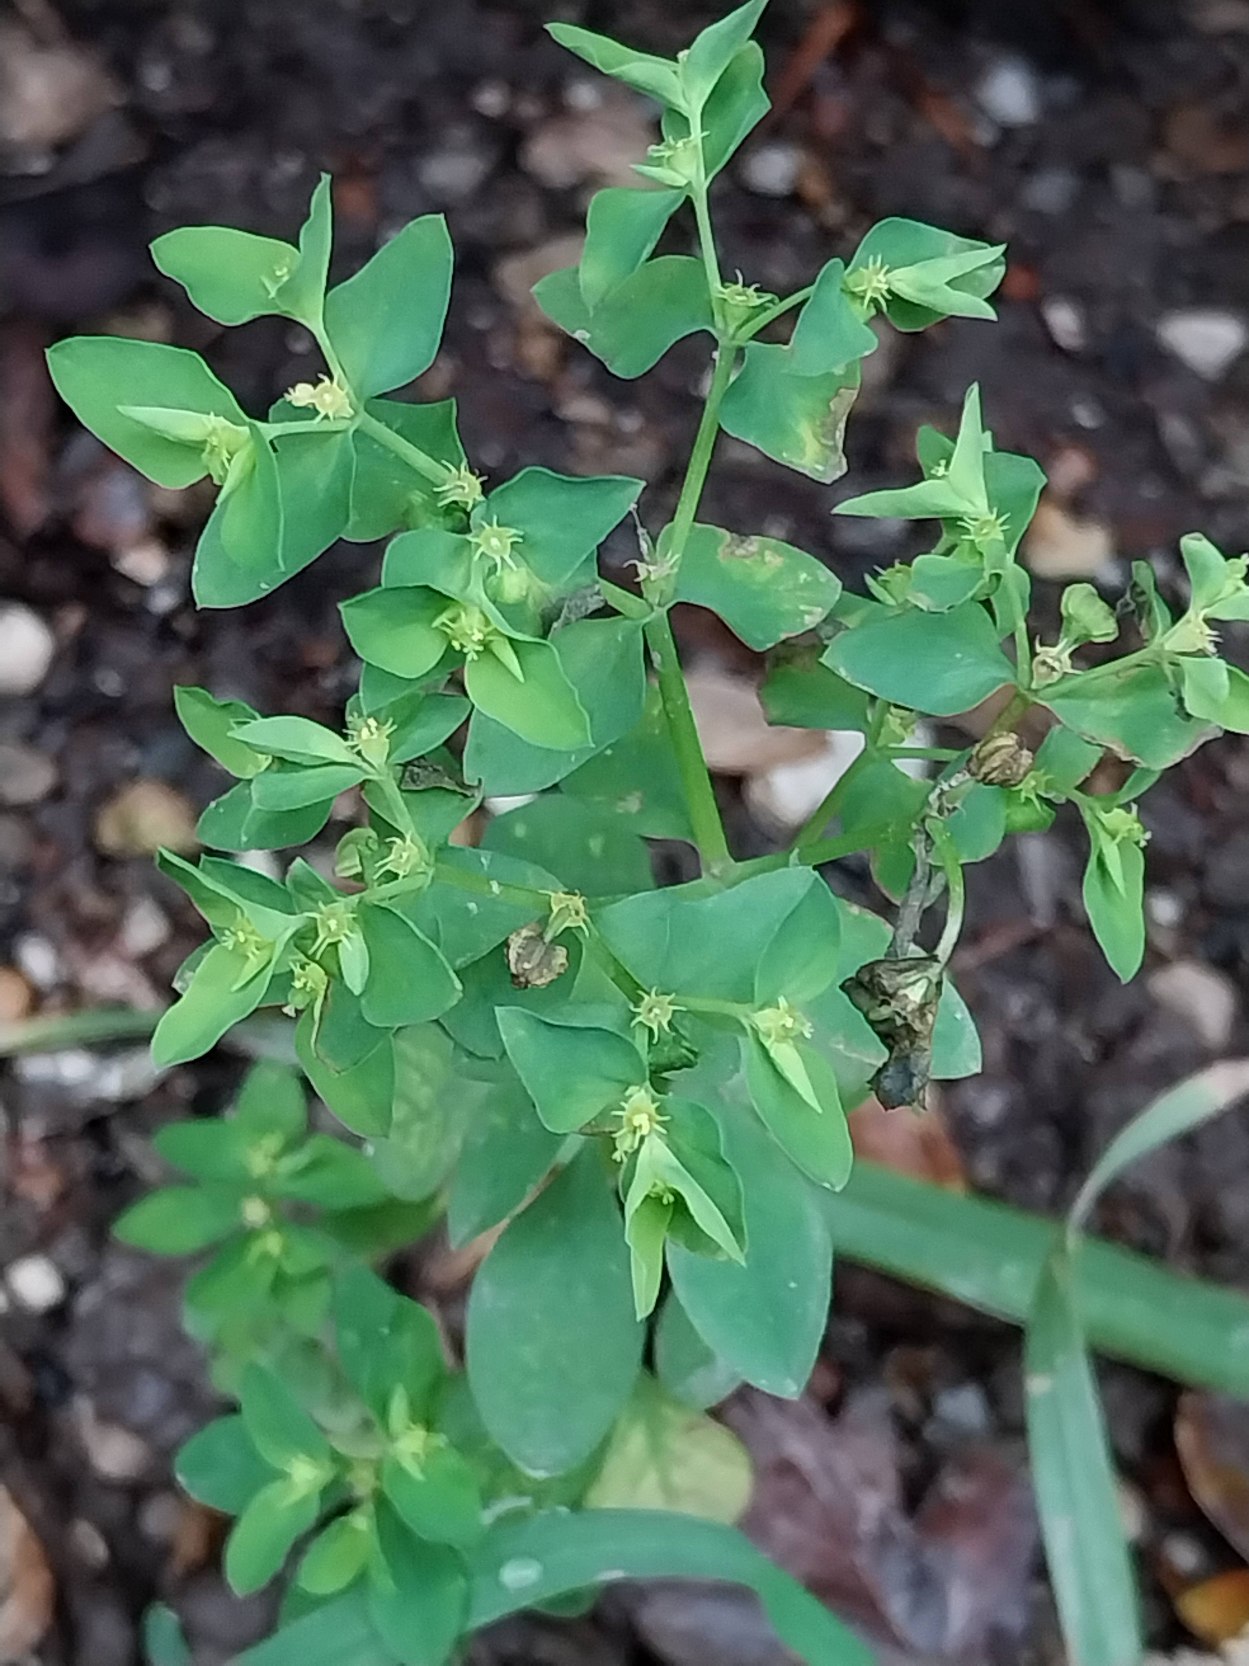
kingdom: Plantae
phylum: Tracheophyta
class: Magnoliopsida
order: Malpighiales
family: Euphorbiaceae
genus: Euphorbia
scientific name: Euphorbia peplus
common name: Gaffel-vortemælk
